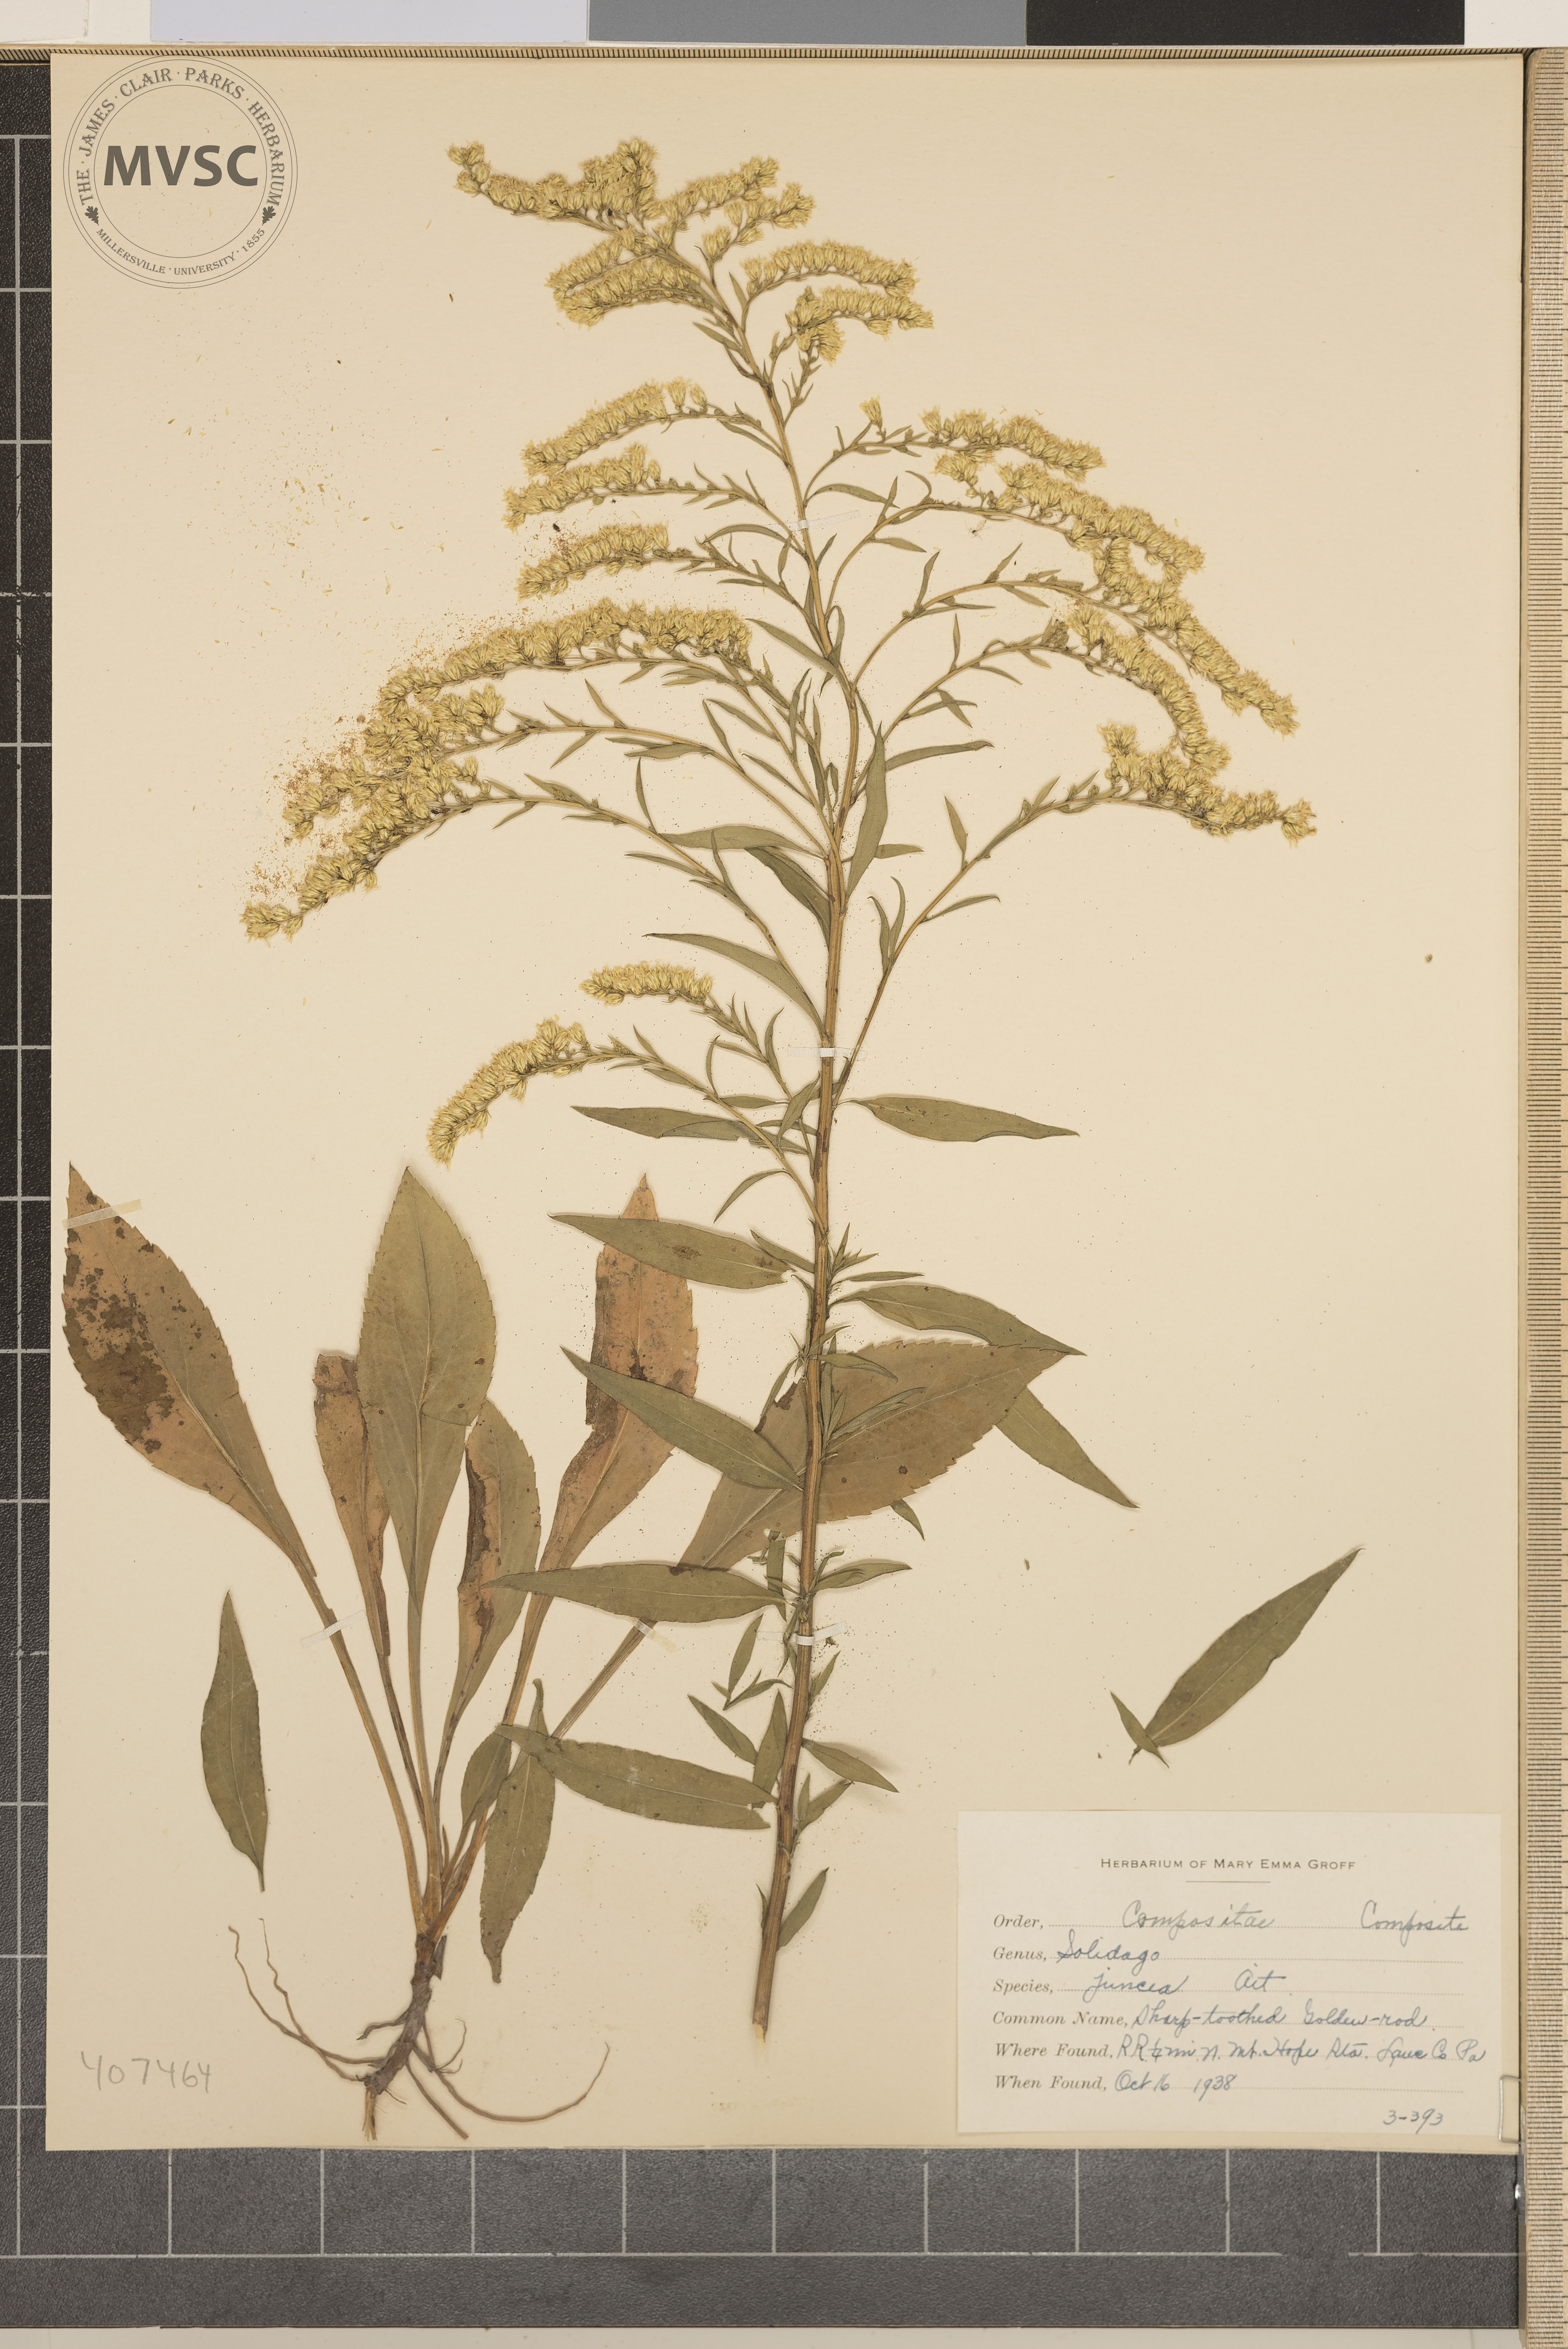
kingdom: Plantae
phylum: Tracheophyta
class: Magnoliopsida
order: Asterales
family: Asteraceae
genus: Solidago
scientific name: Solidago juncea
